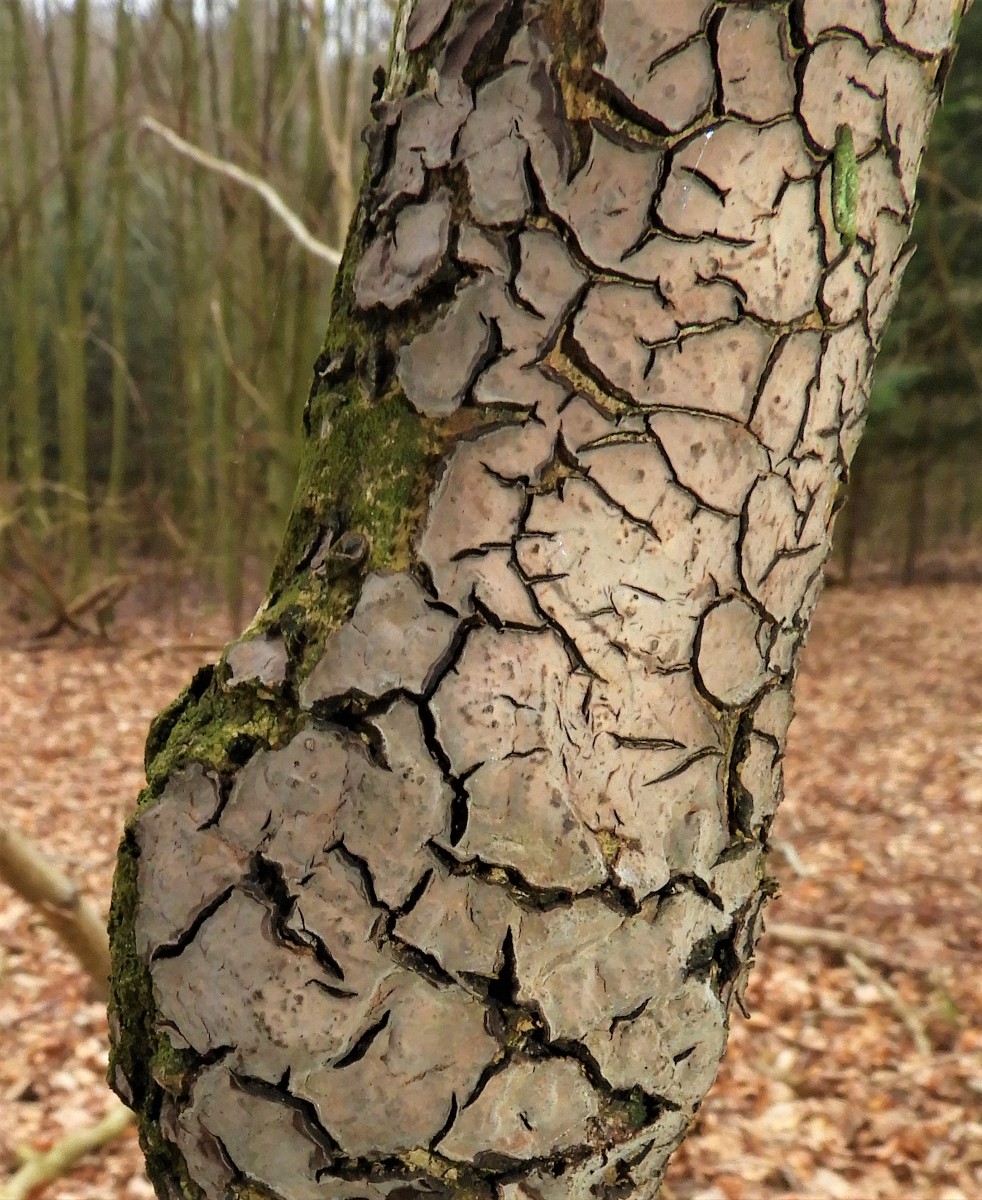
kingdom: Fungi
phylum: Basidiomycota
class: Agaricomycetes
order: Russulales
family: Peniophoraceae
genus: Peniophora
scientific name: Peniophora quercina
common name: ege-voksskind
